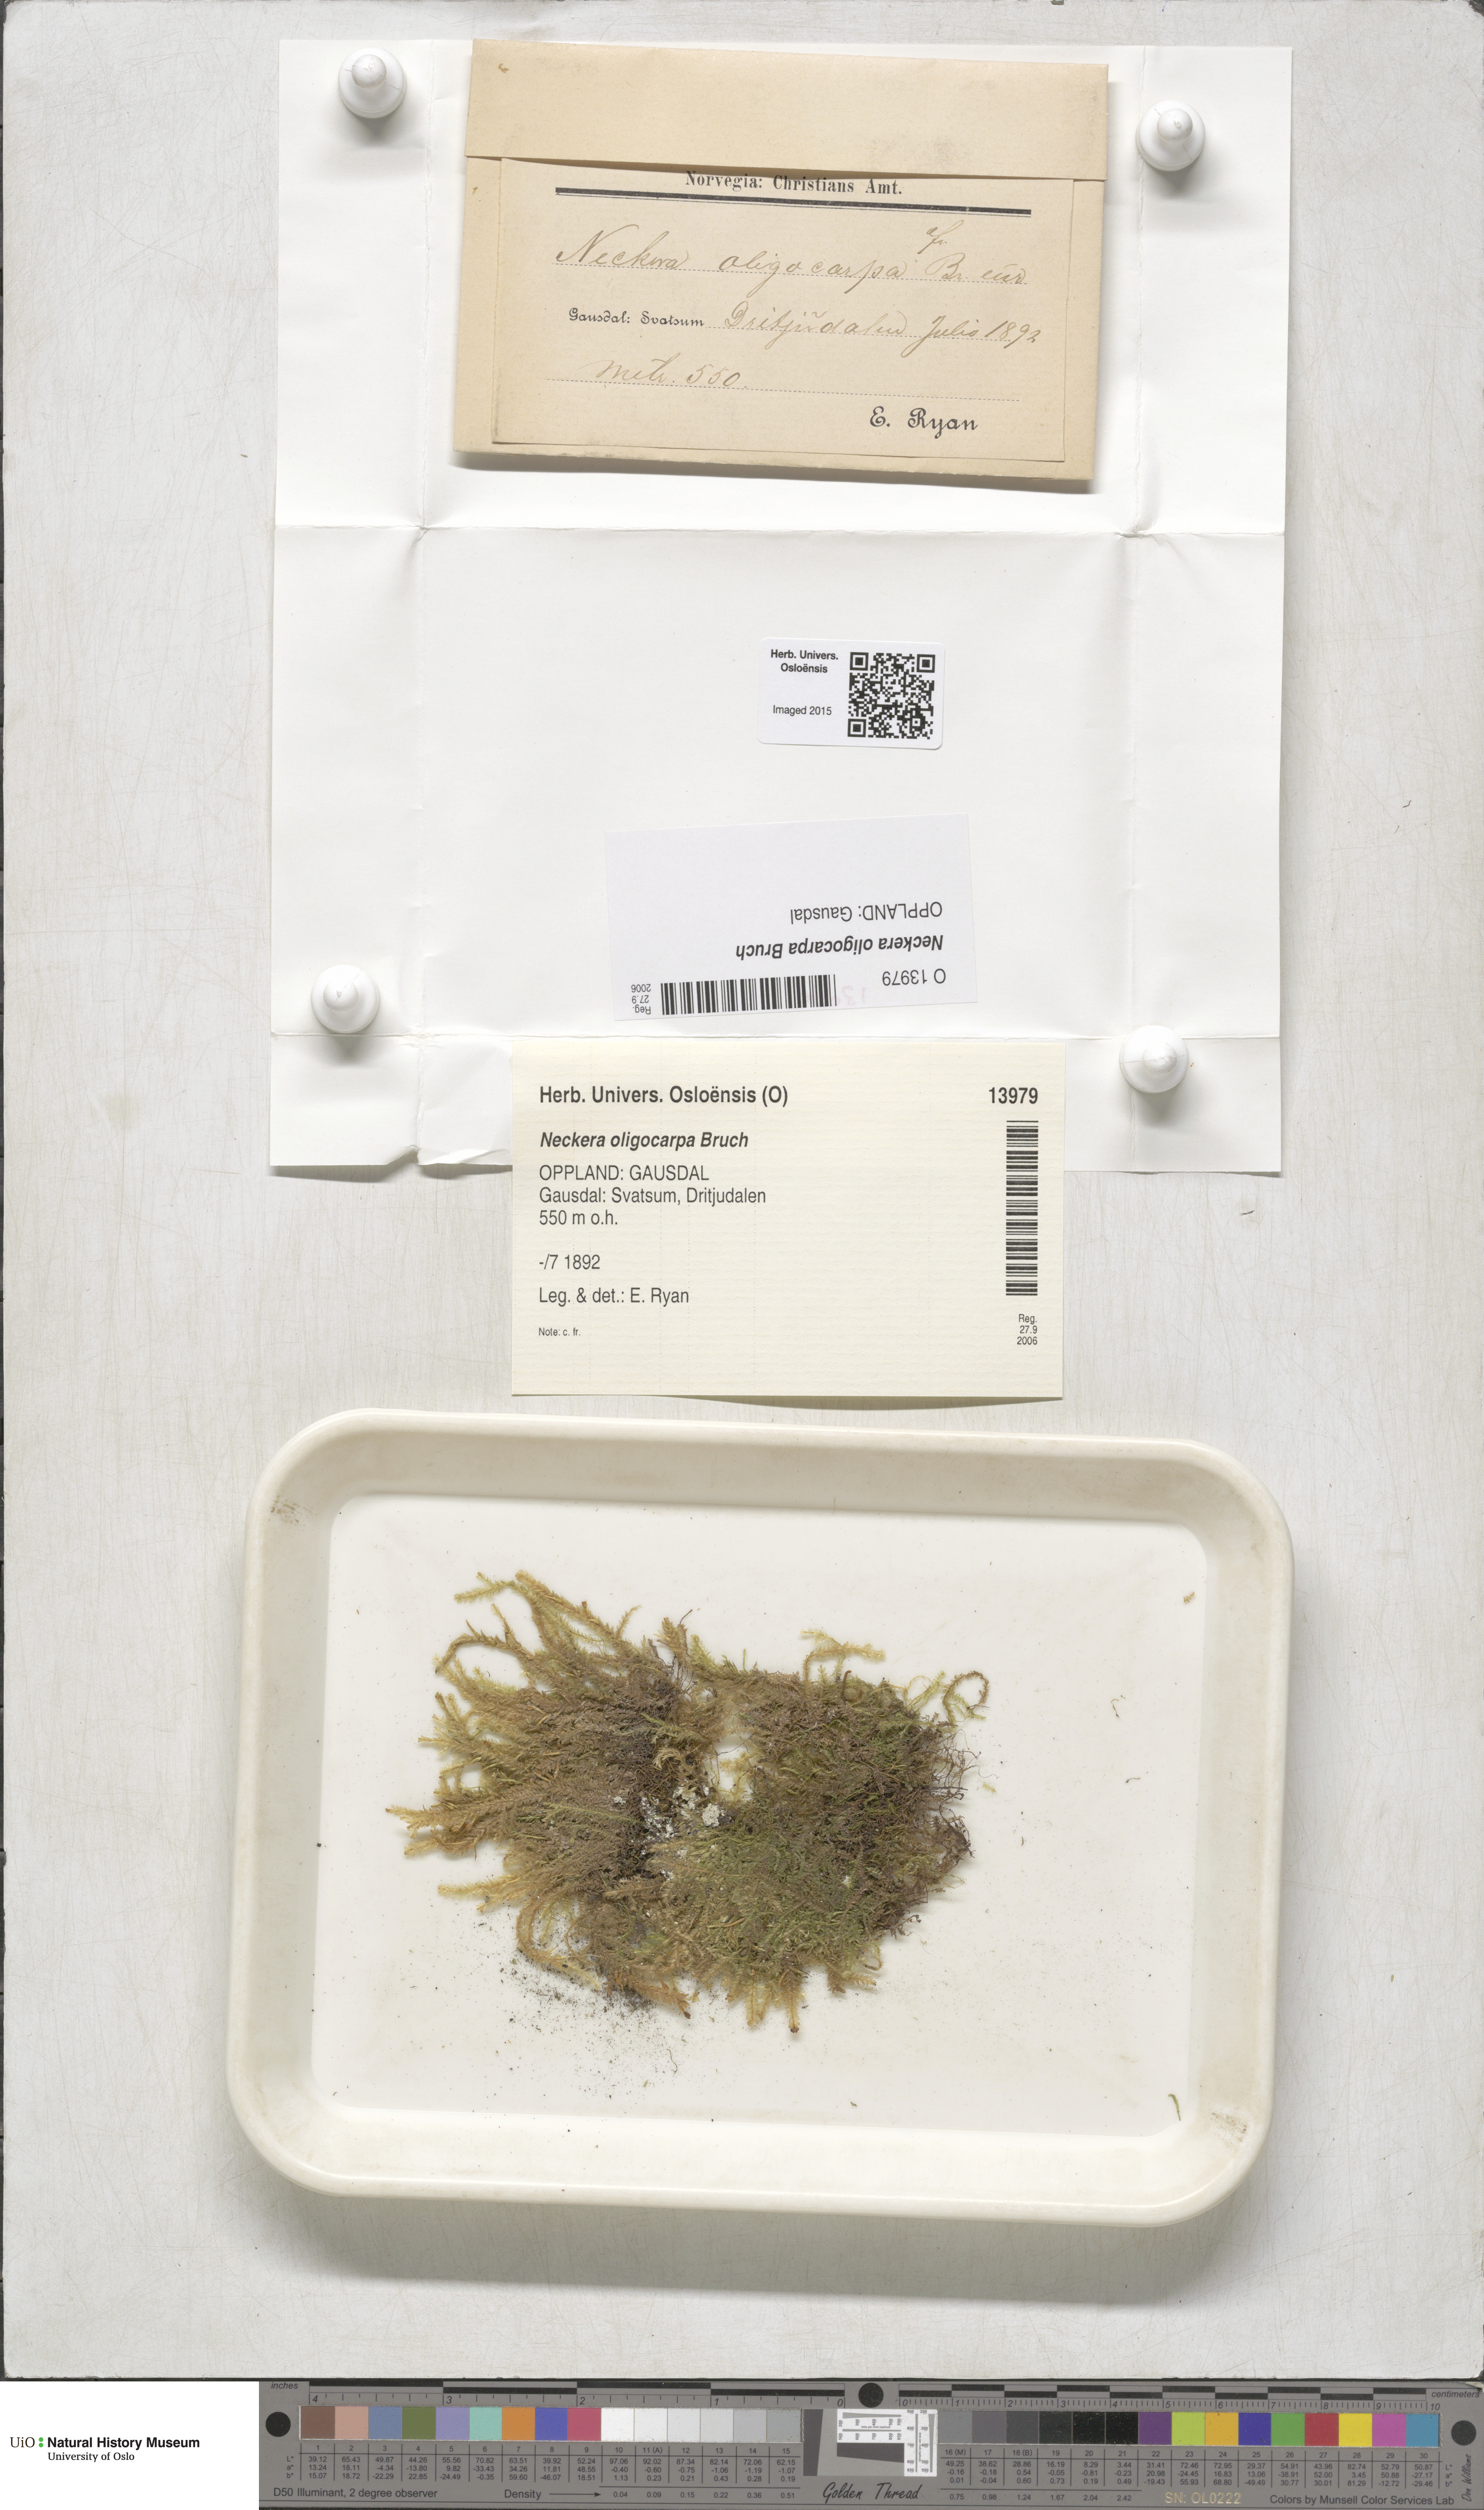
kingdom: Plantae
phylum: Bryophyta
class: Bryopsida
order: Hypnales
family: Neckeraceae
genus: Neckera
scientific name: Neckera oligocarpa
